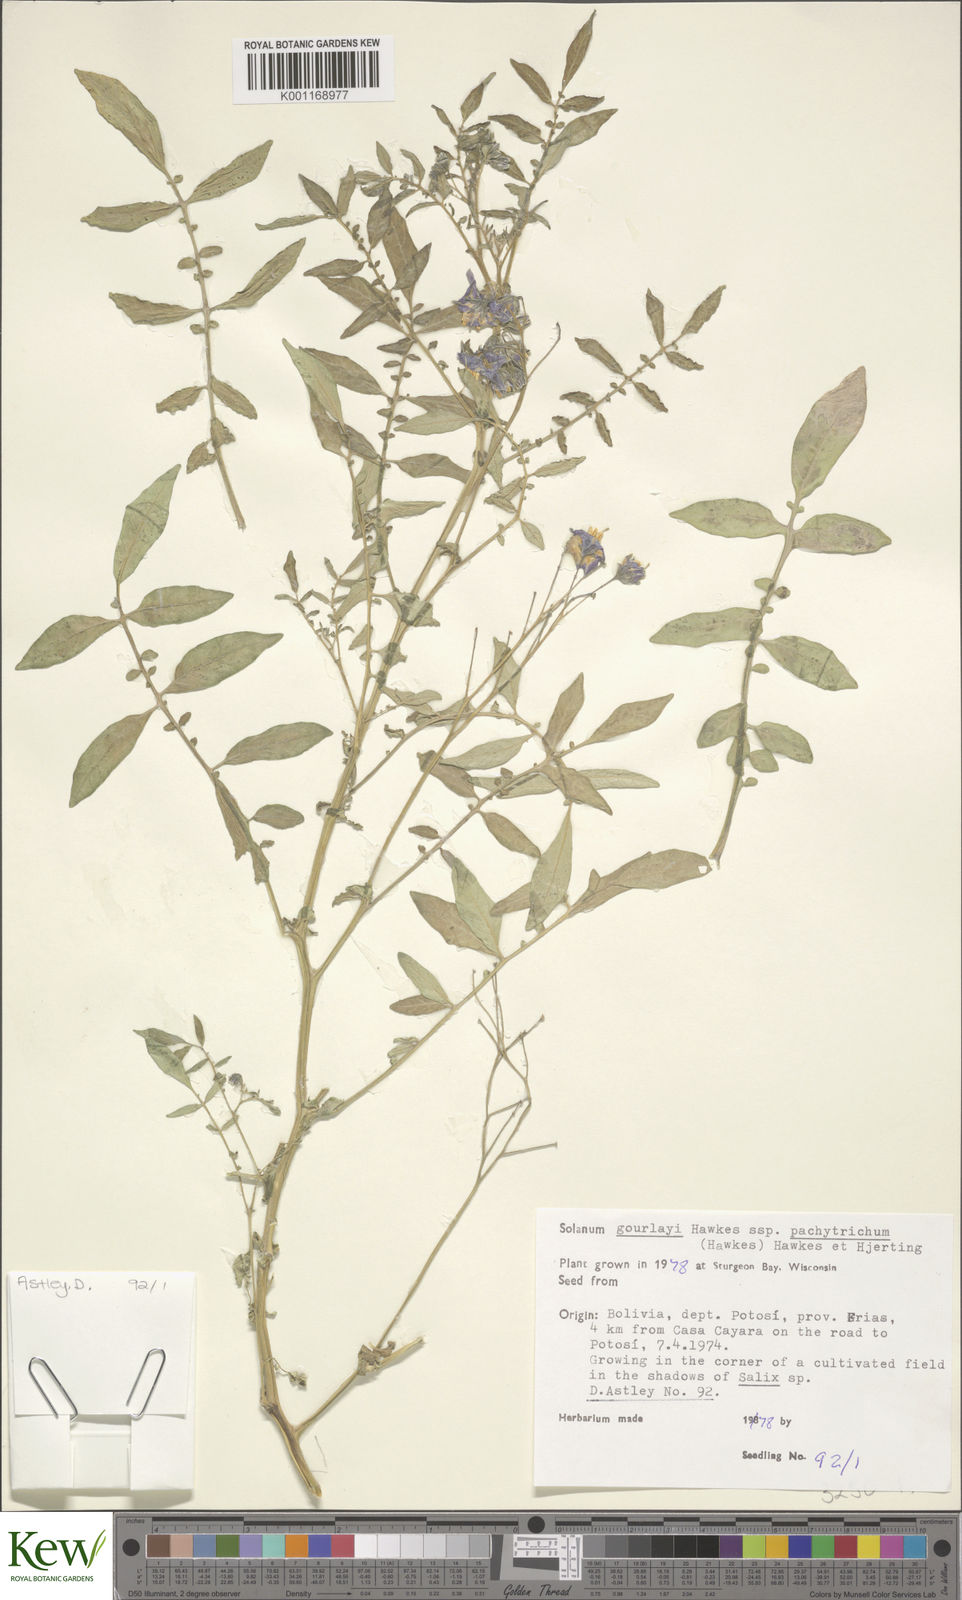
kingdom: Plantae
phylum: Tracheophyta
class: Magnoliopsida
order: Solanales
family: Solanaceae
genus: Solanum
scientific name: Solanum brevicaule
